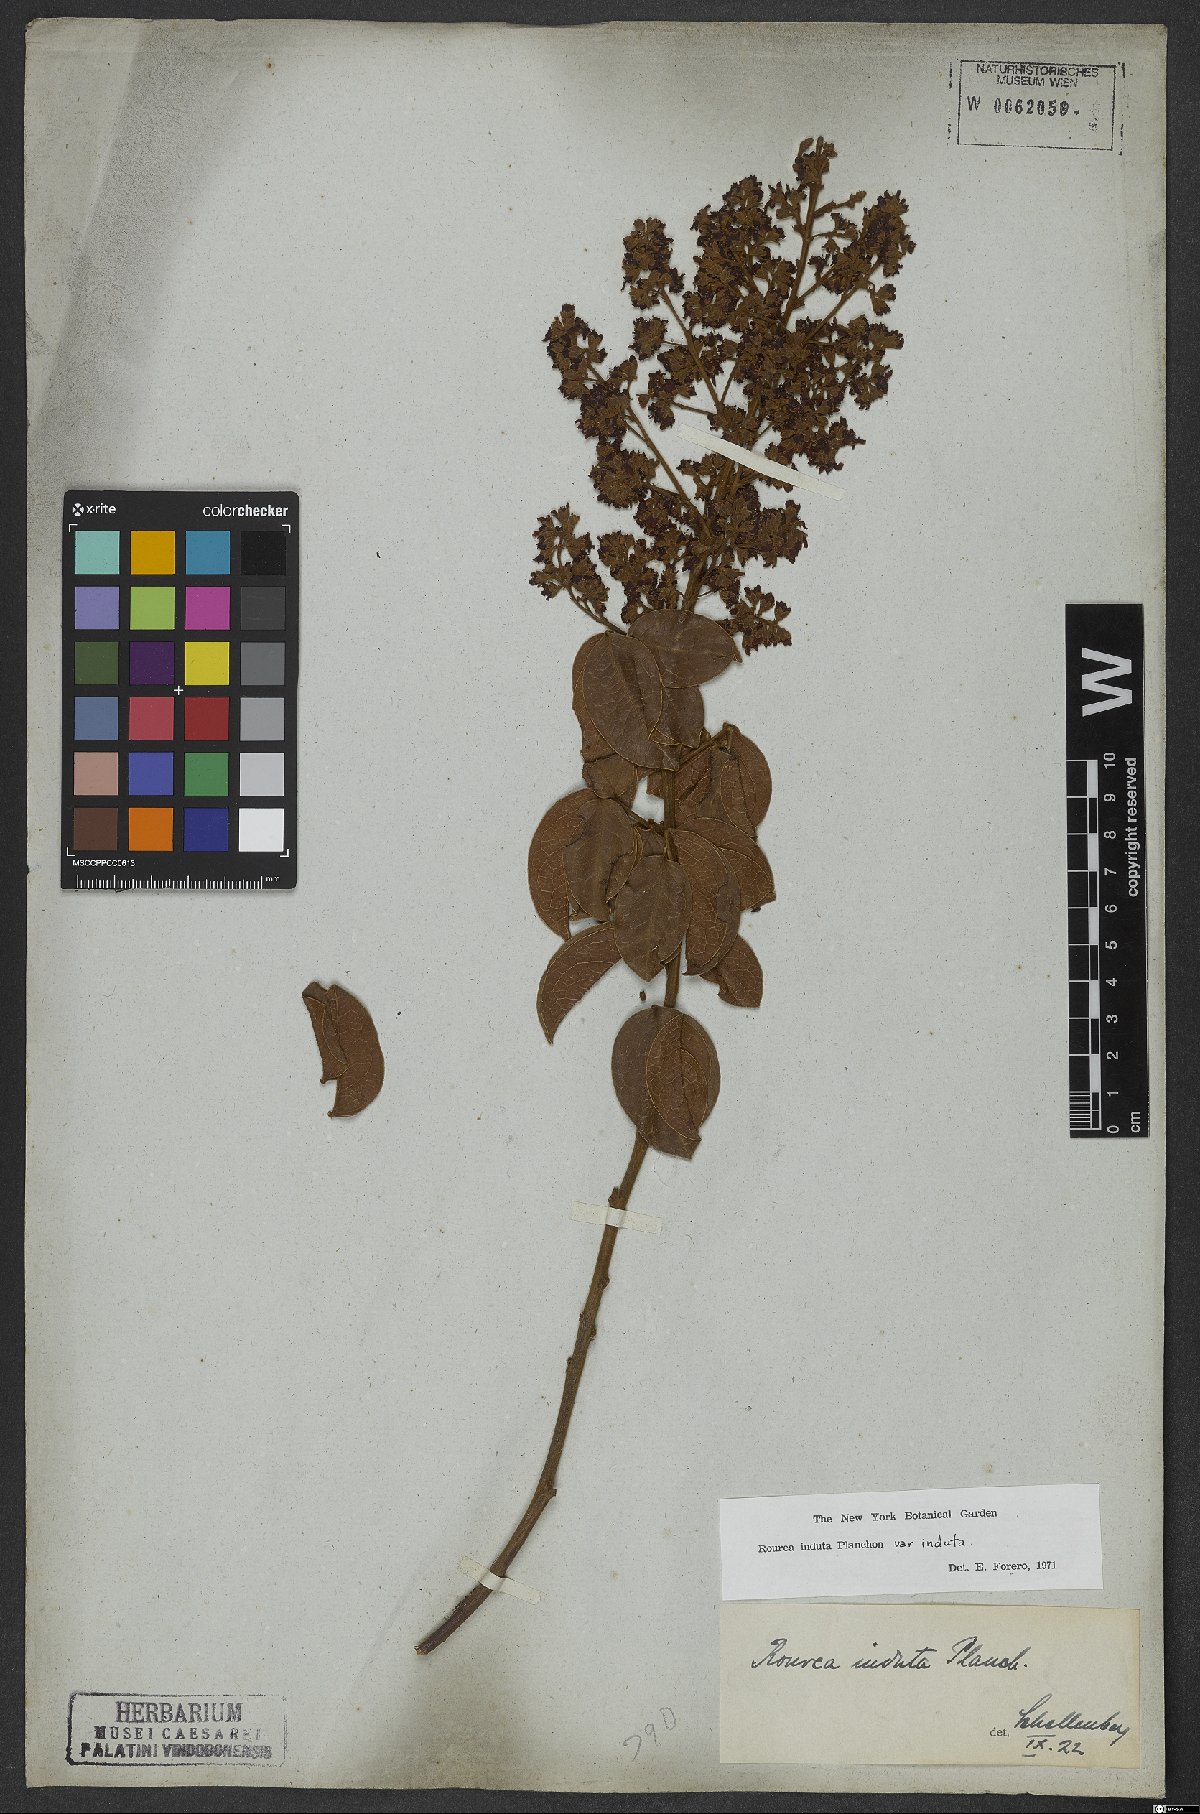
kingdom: Plantae
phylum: Tracheophyta
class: Magnoliopsida
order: Oxalidales
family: Connaraceae
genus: Rourea
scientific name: Rourea induta
